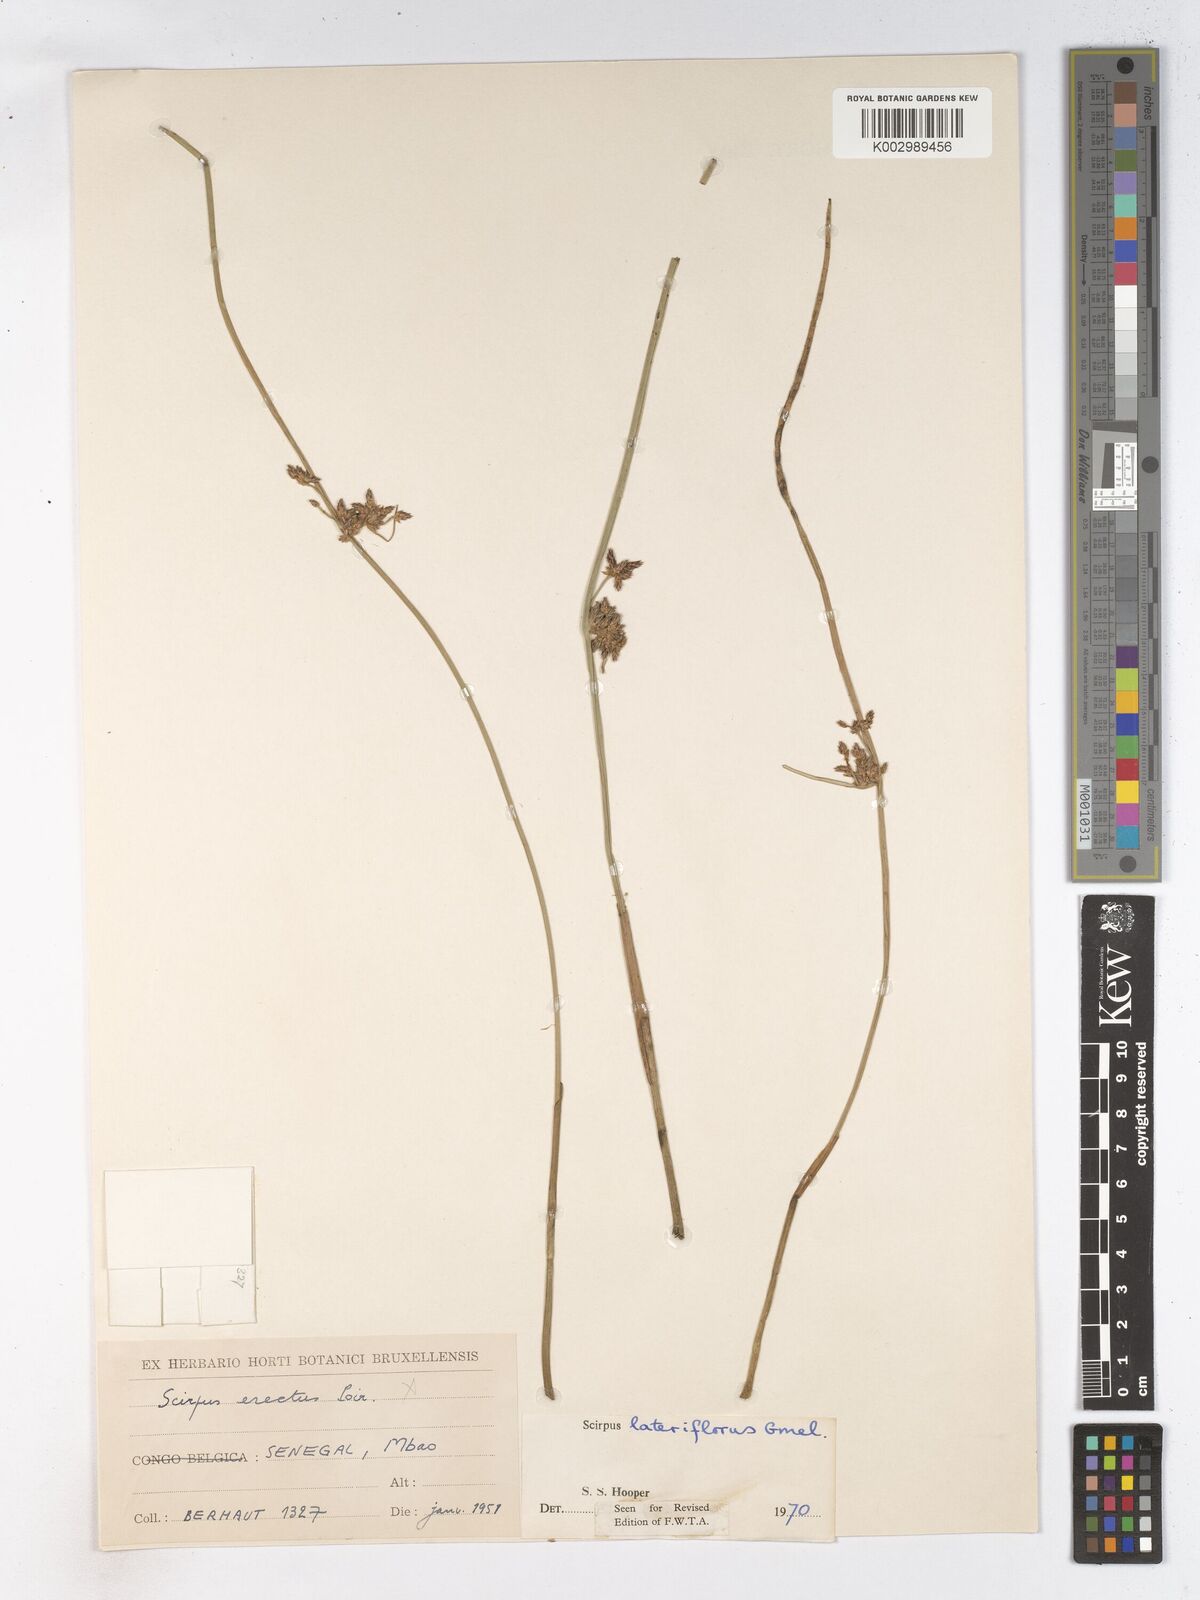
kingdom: Plantae
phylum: Tracheophyta
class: Liliopsida
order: Poales
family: Cyperaceae
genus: Schoenoplectiella
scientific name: Schoenoplectiella lateriflora
